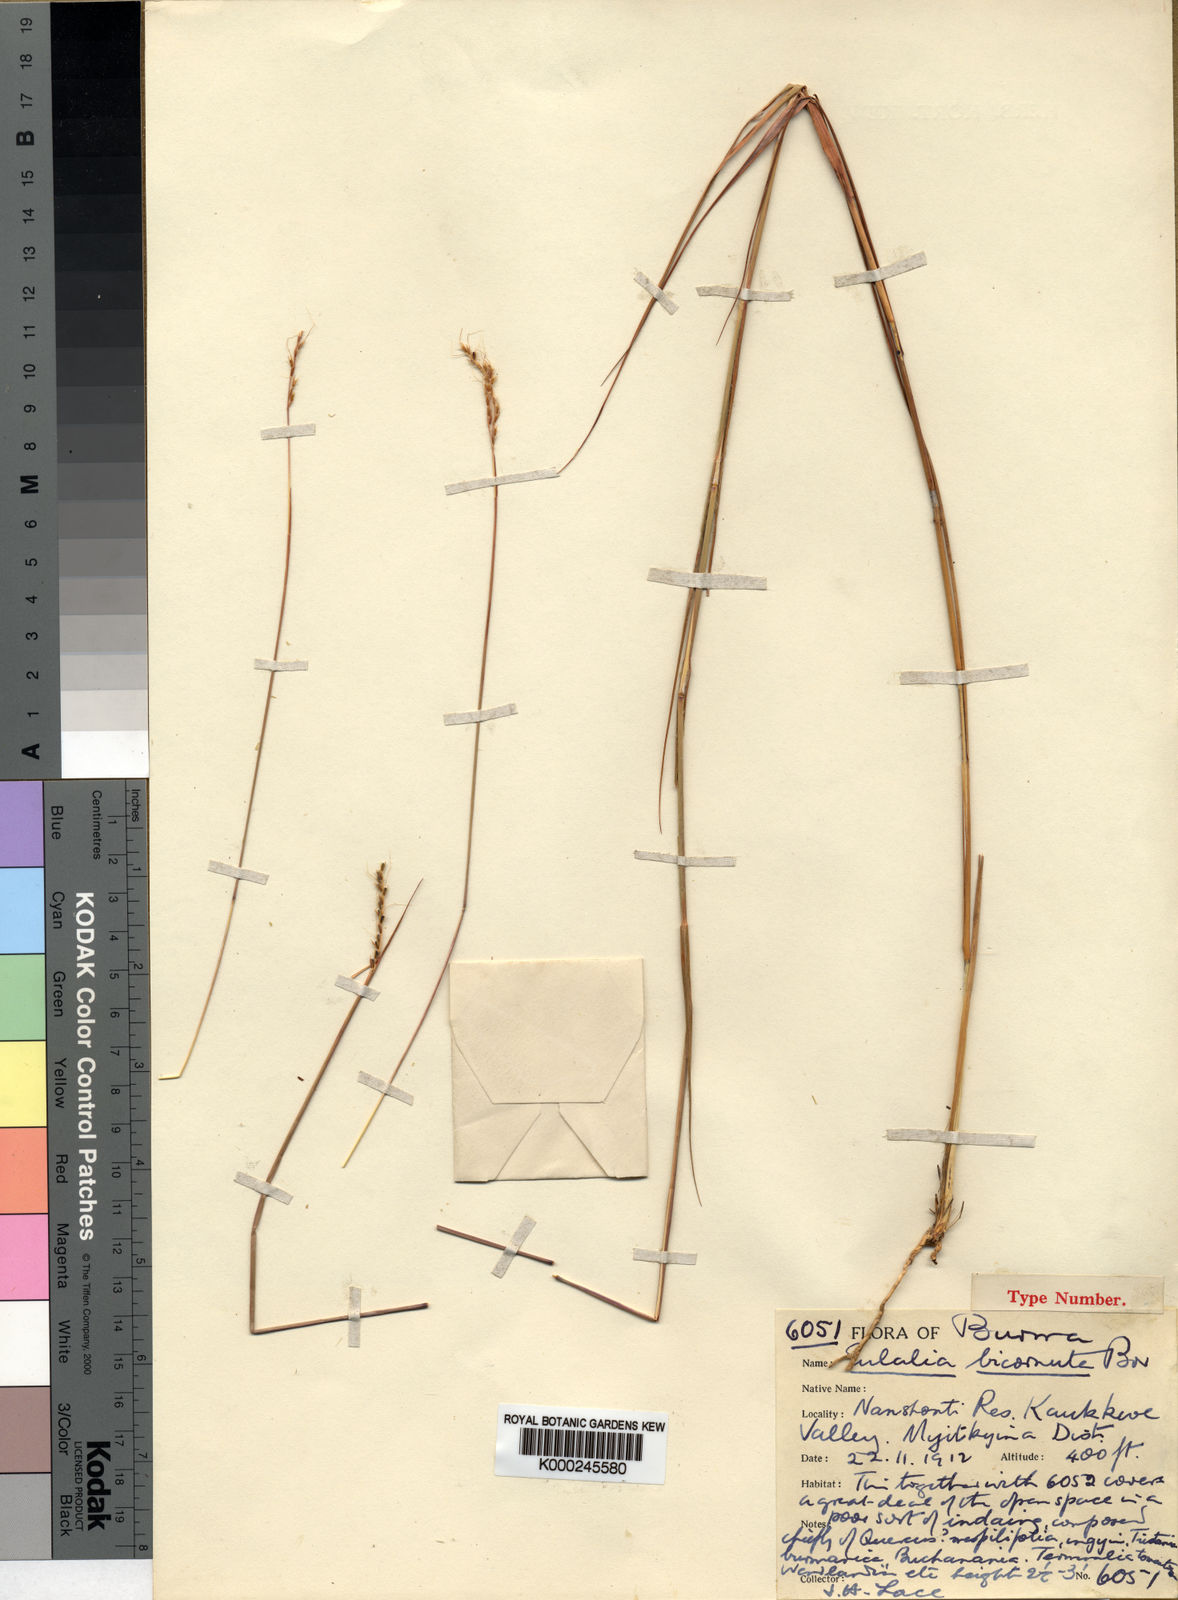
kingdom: Plantae
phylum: Tracheophyta
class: Liliopsida
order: Poales
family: Poaceae
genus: Eulalia
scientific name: Eulalia bicornuta
